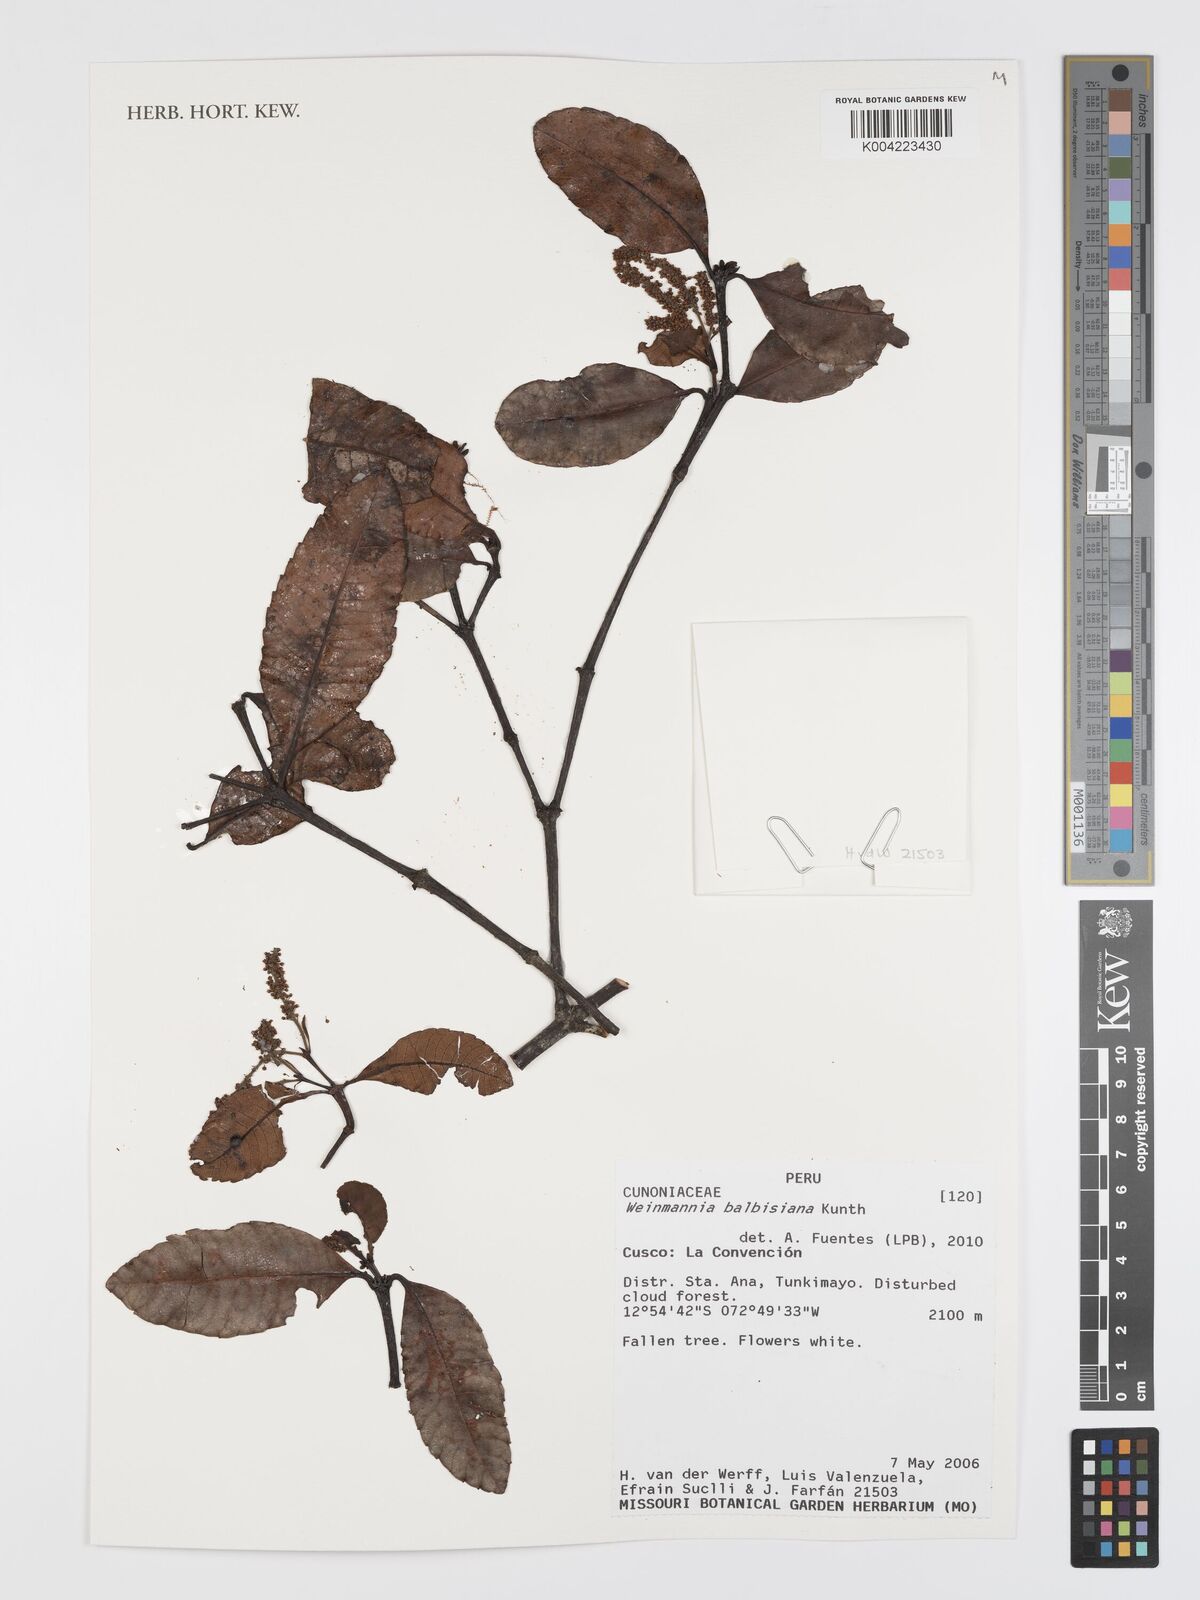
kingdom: Plantae
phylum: Tracheophyta
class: Magnoliopsida
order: Oxalidales
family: Cunoniaceae
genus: Weinmannia
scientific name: Weinmannia balbisana
